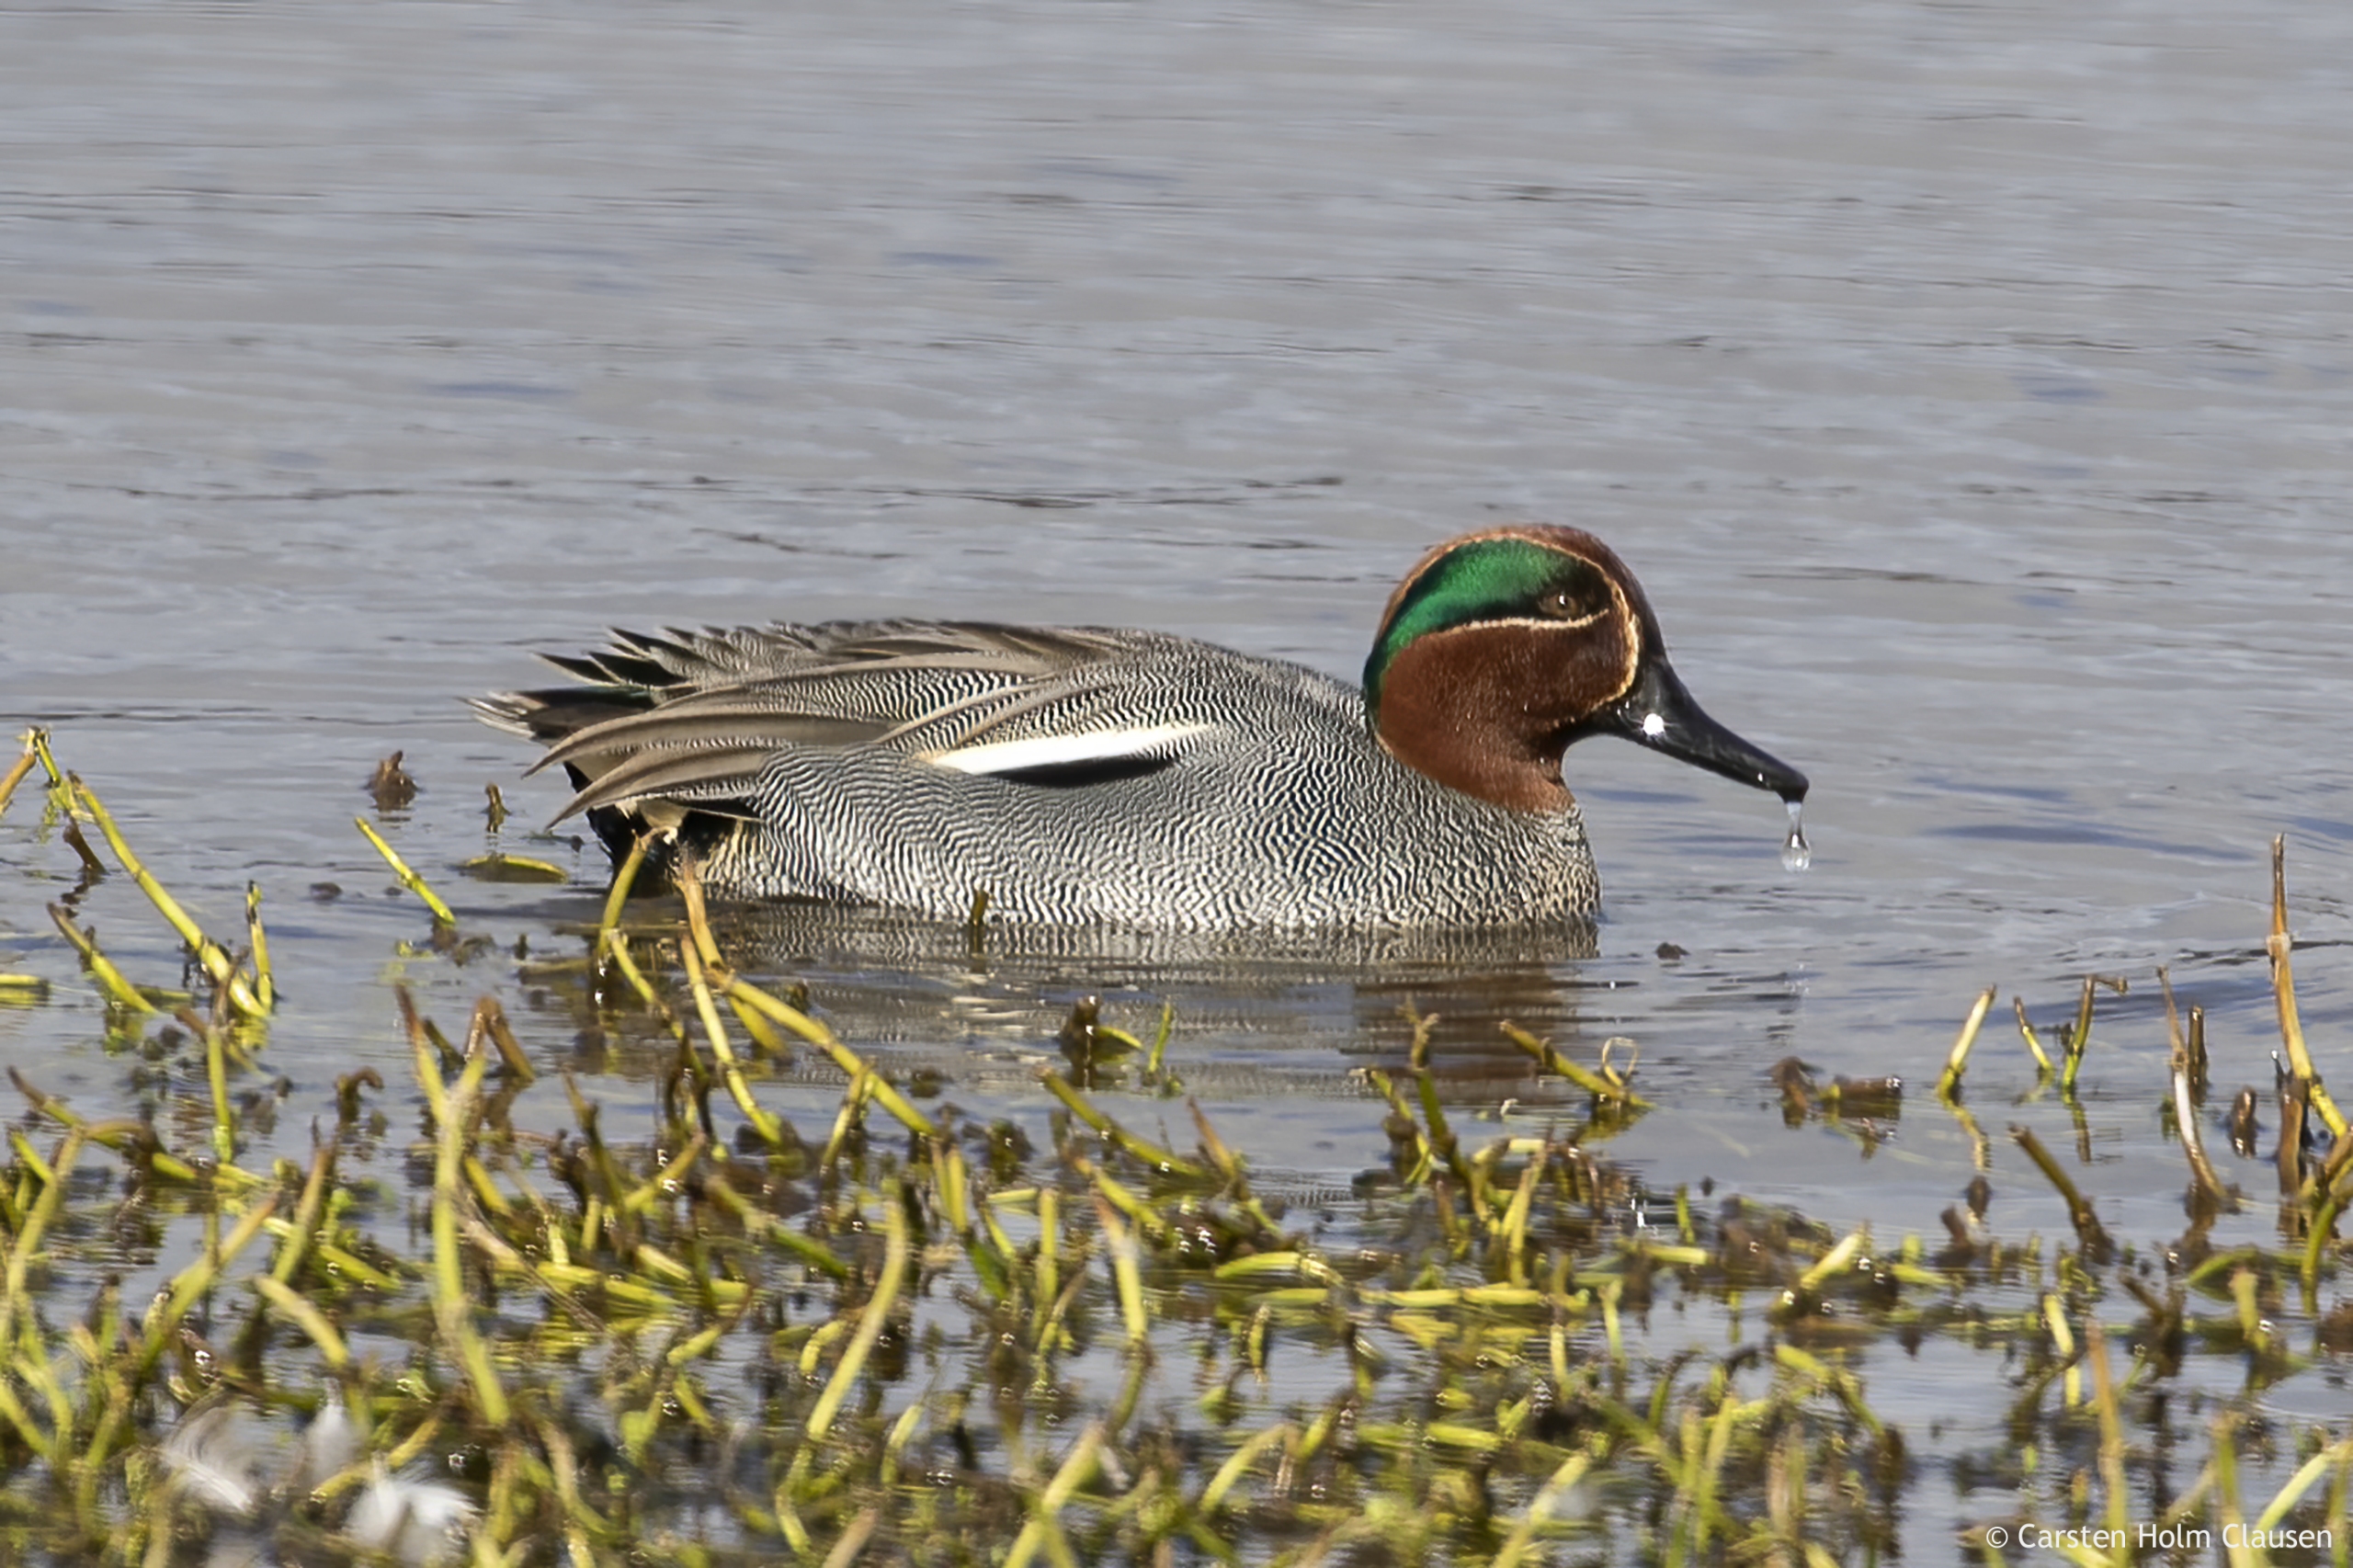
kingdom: Animalia
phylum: Chordata
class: Aves
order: Anseriformes
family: Anatidae
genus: Anas
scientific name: Anas crecca
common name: Krikand
